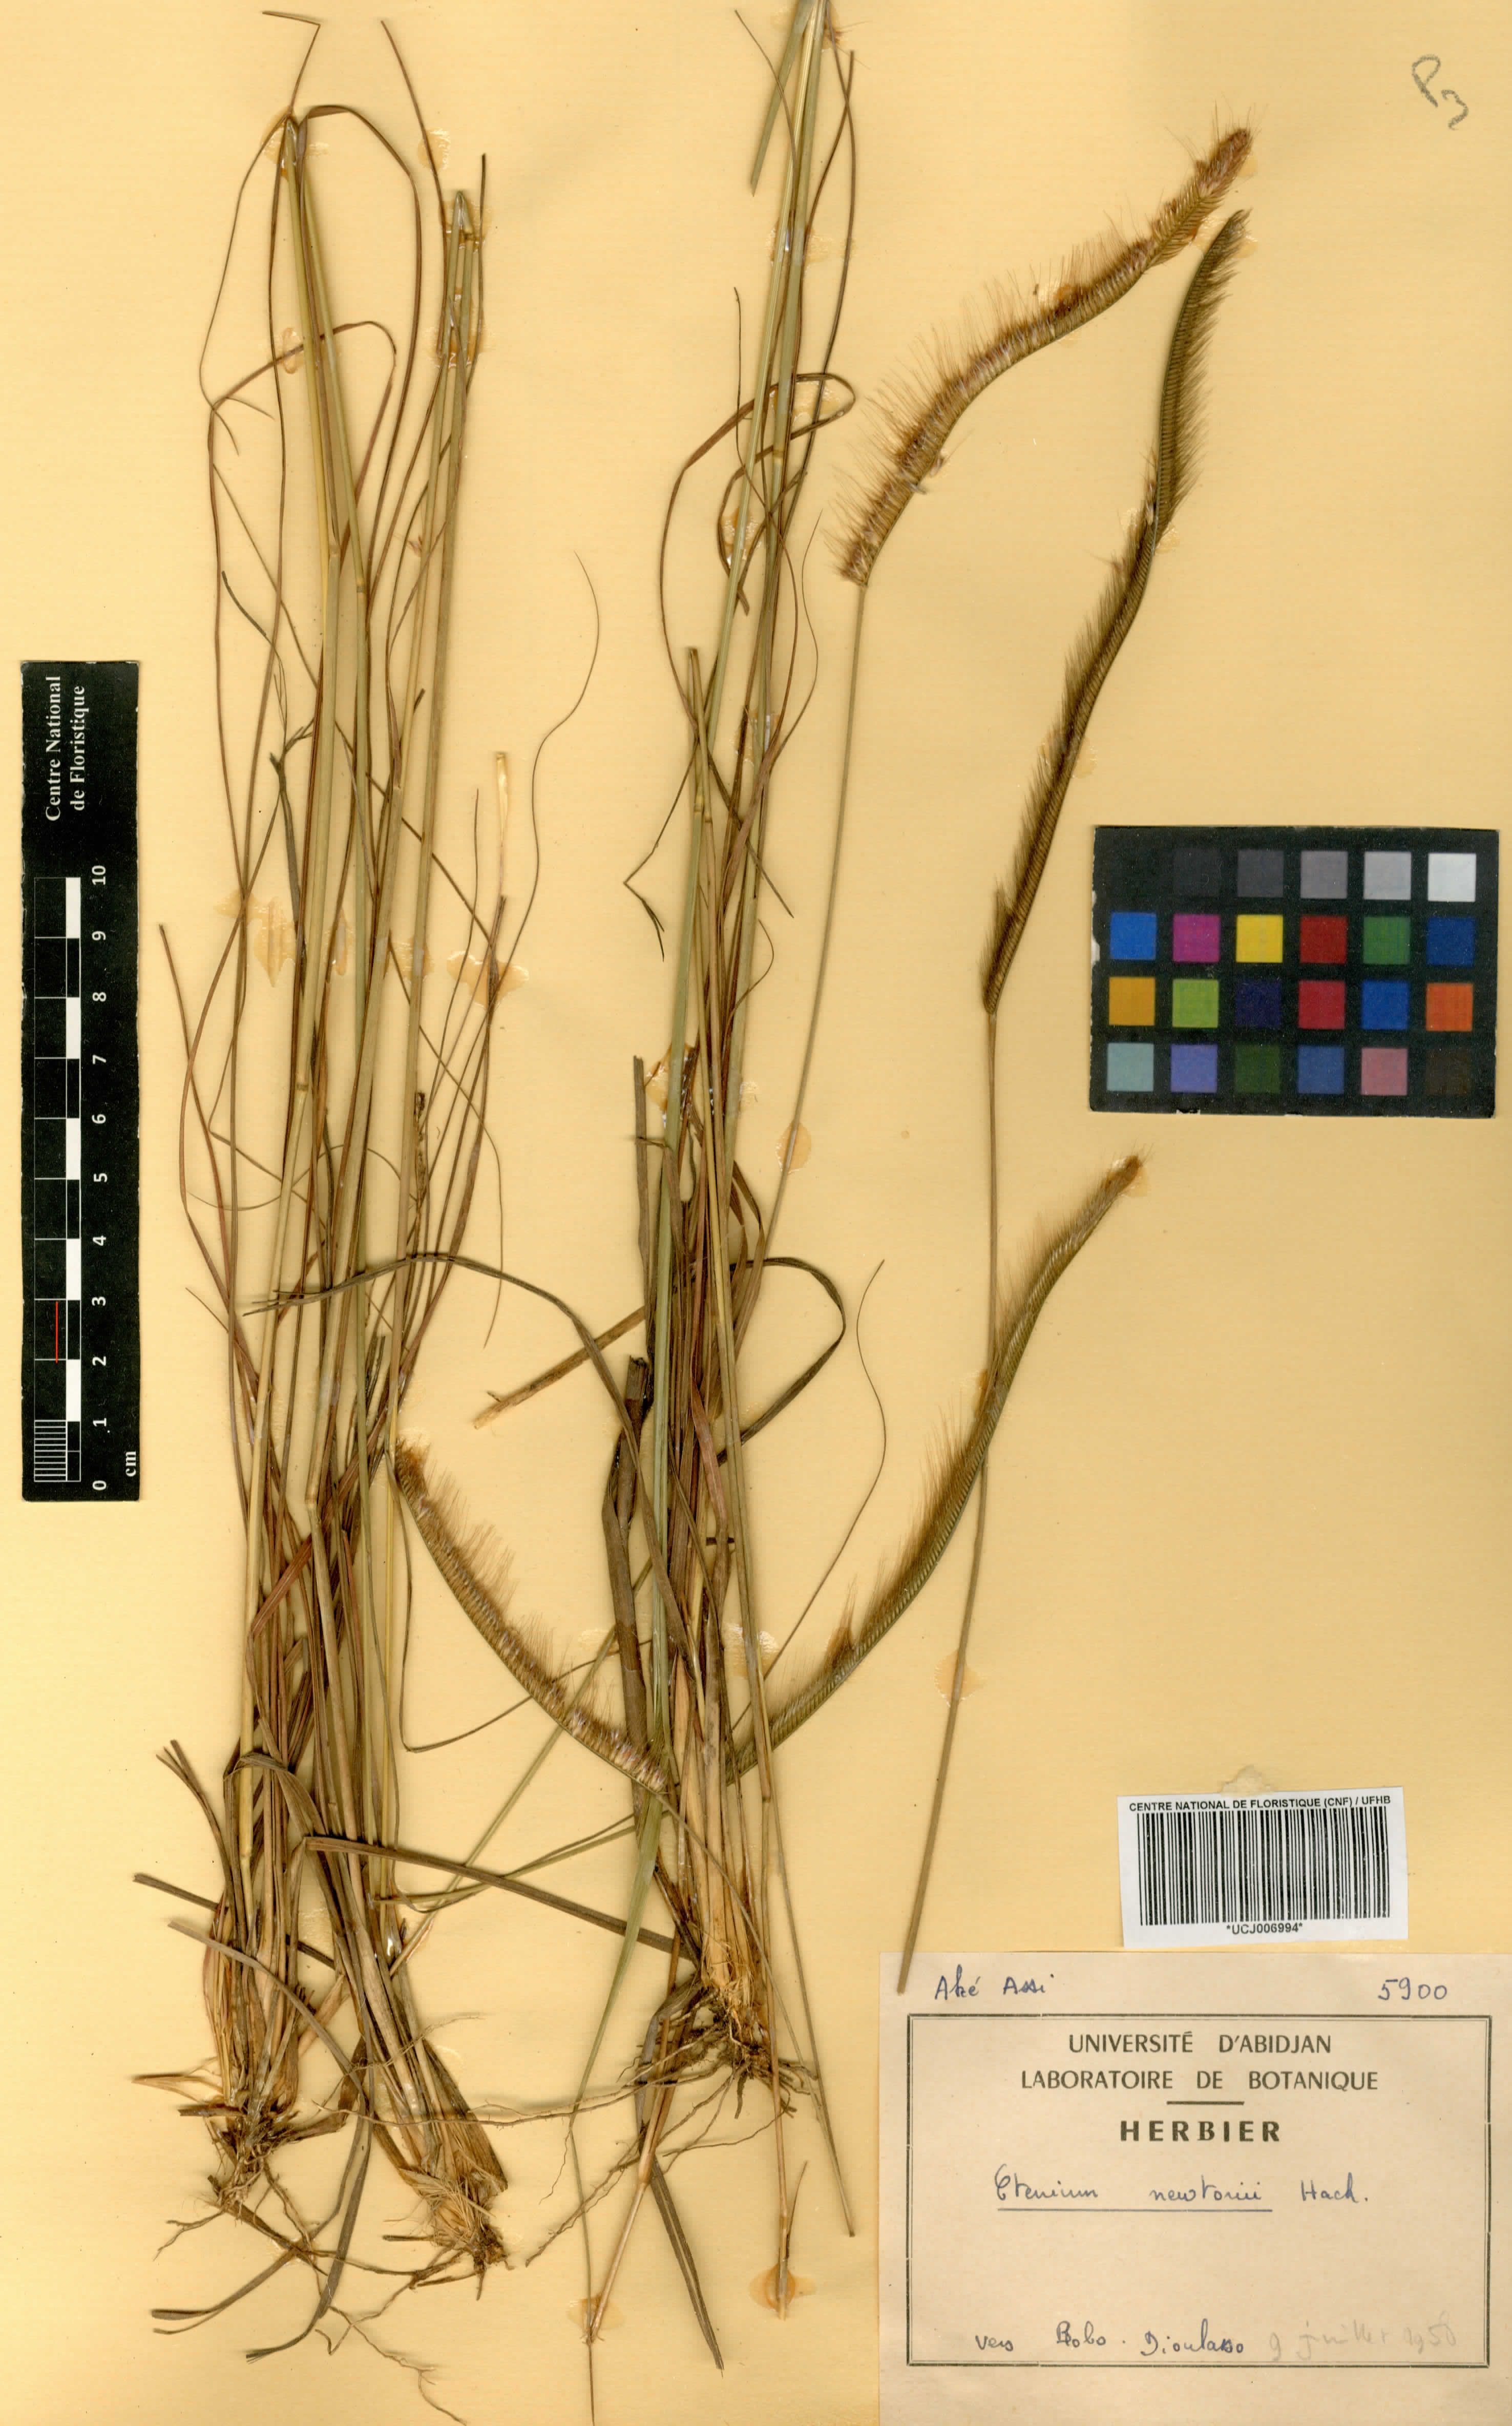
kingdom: Plantae
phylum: Tracheophyta
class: Liliopsida
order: Poales
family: Poaceae
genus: Ctenium
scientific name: Ctenium newtonii
